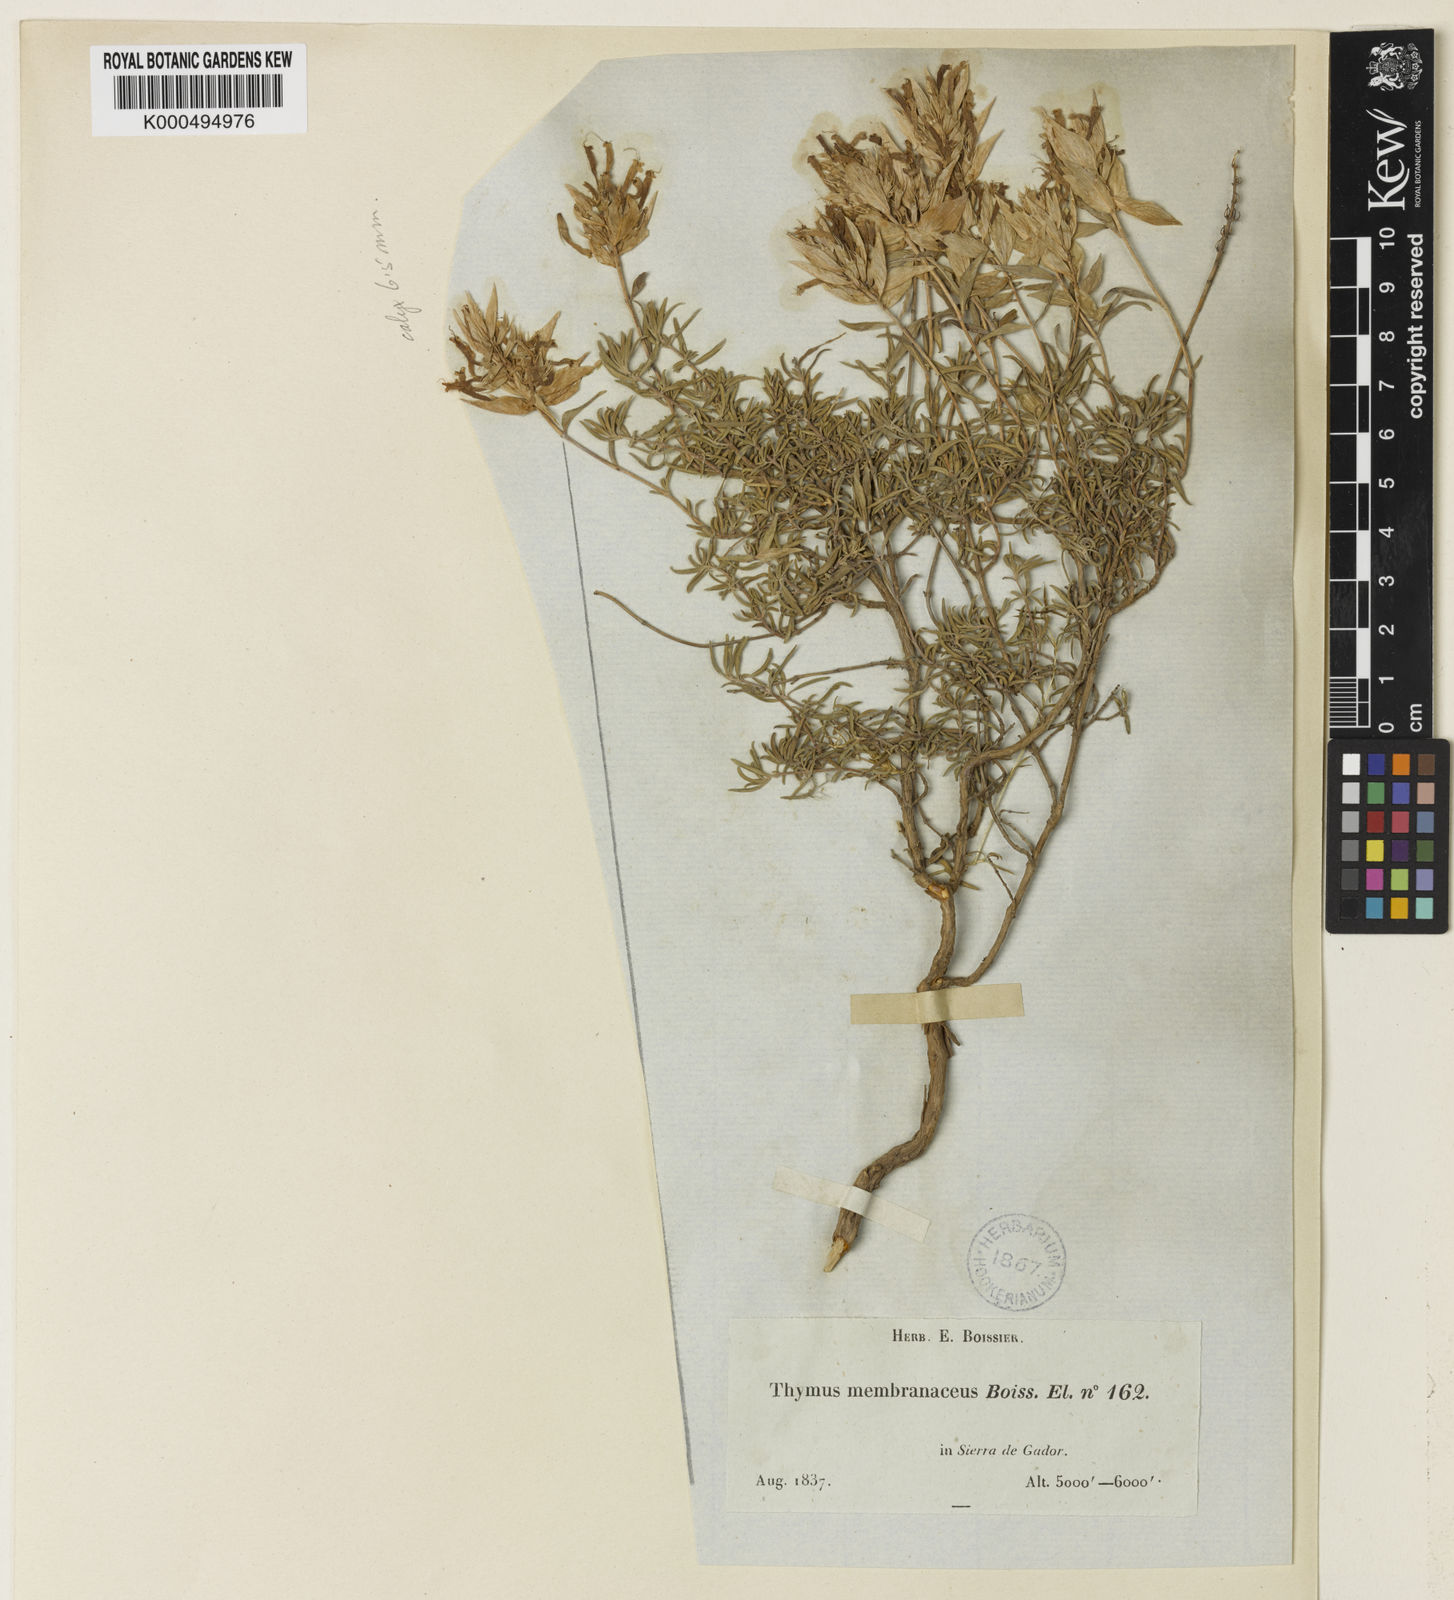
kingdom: Plantae
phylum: Tracheophyta
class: Magnoliopsida
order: Lamiales
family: Lamiaceae
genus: Thymus
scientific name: Thymus membranaceus
